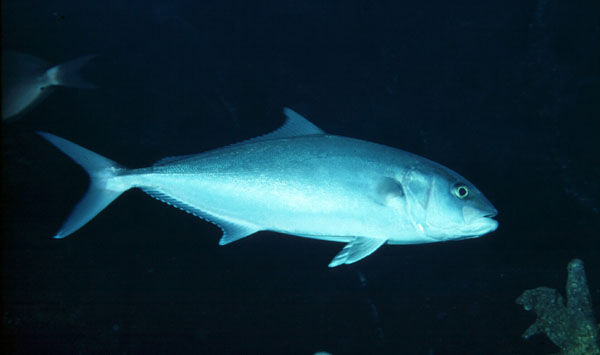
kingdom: Animalia
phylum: Chordata
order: Perciformes
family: Carangidae
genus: Seriola
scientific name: Seriola dumerili
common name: Greater amberjack
